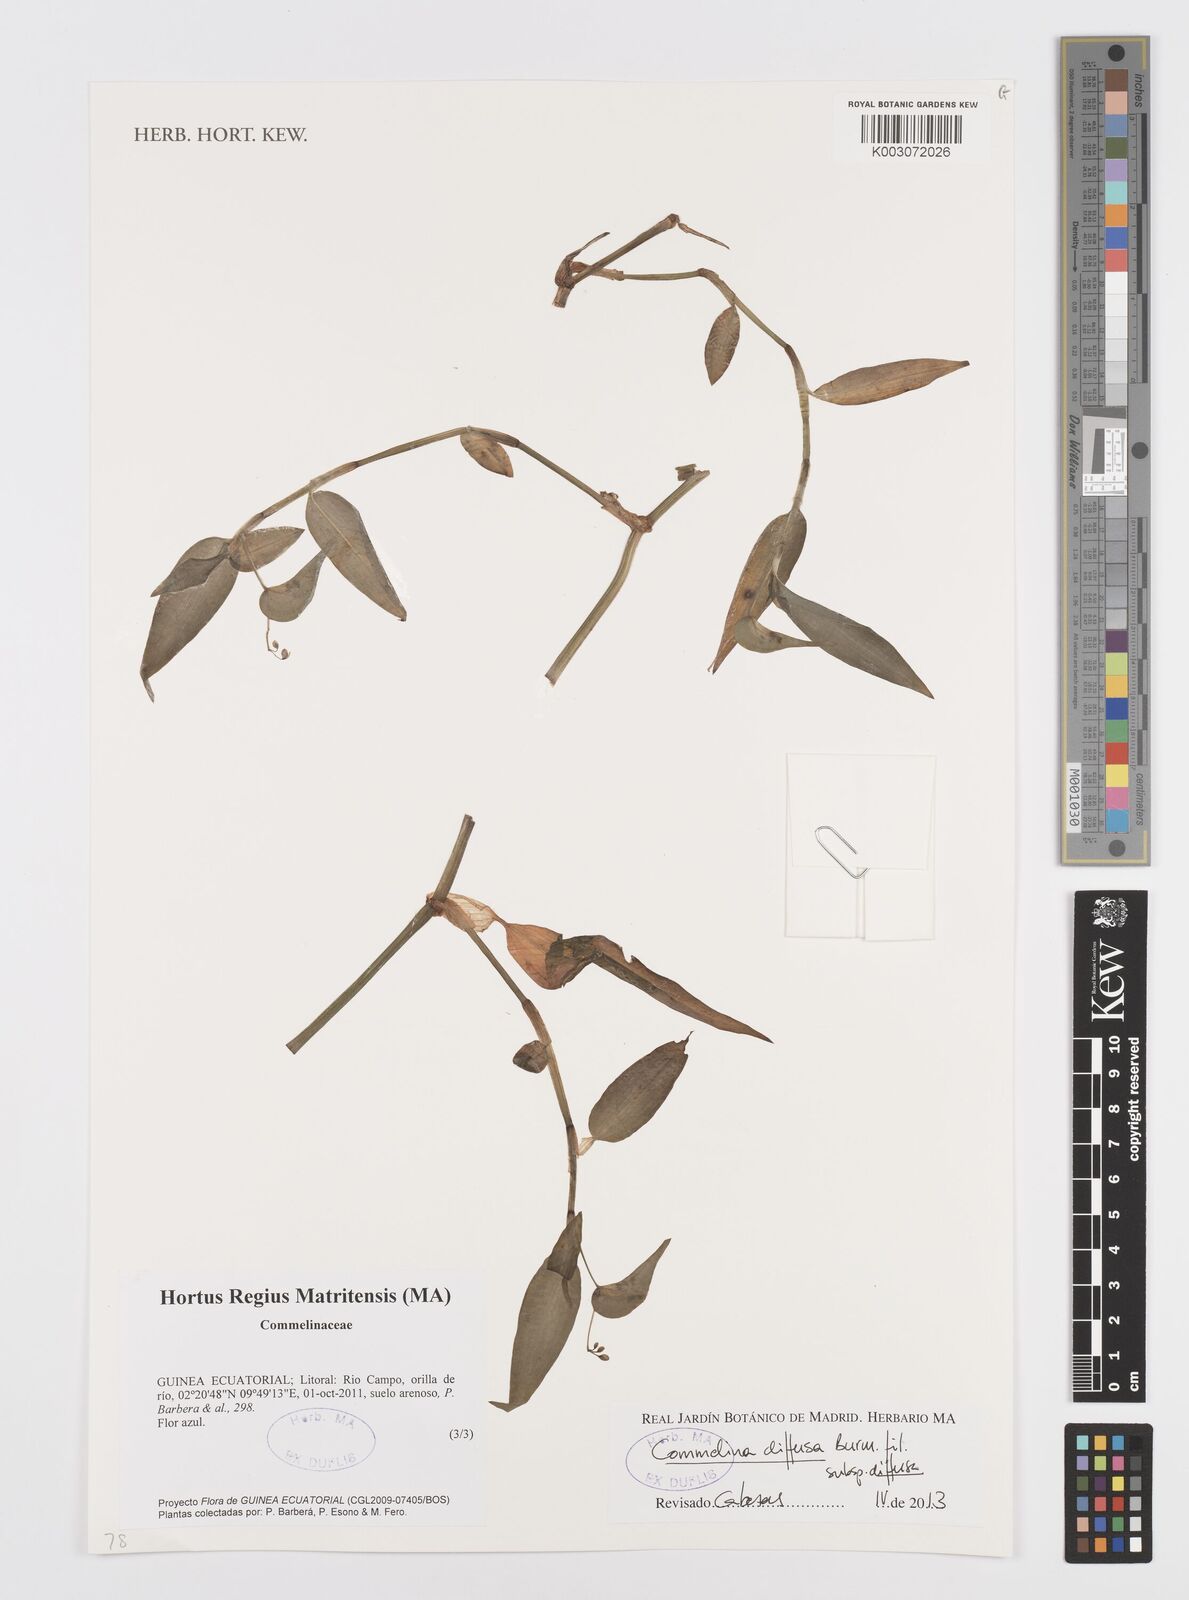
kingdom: Plantae
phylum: Tracheophyta
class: Liliopsida
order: Commelinales
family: Commelinaceae
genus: Commelina
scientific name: Commelina diffusa
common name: Climbing dayflower
